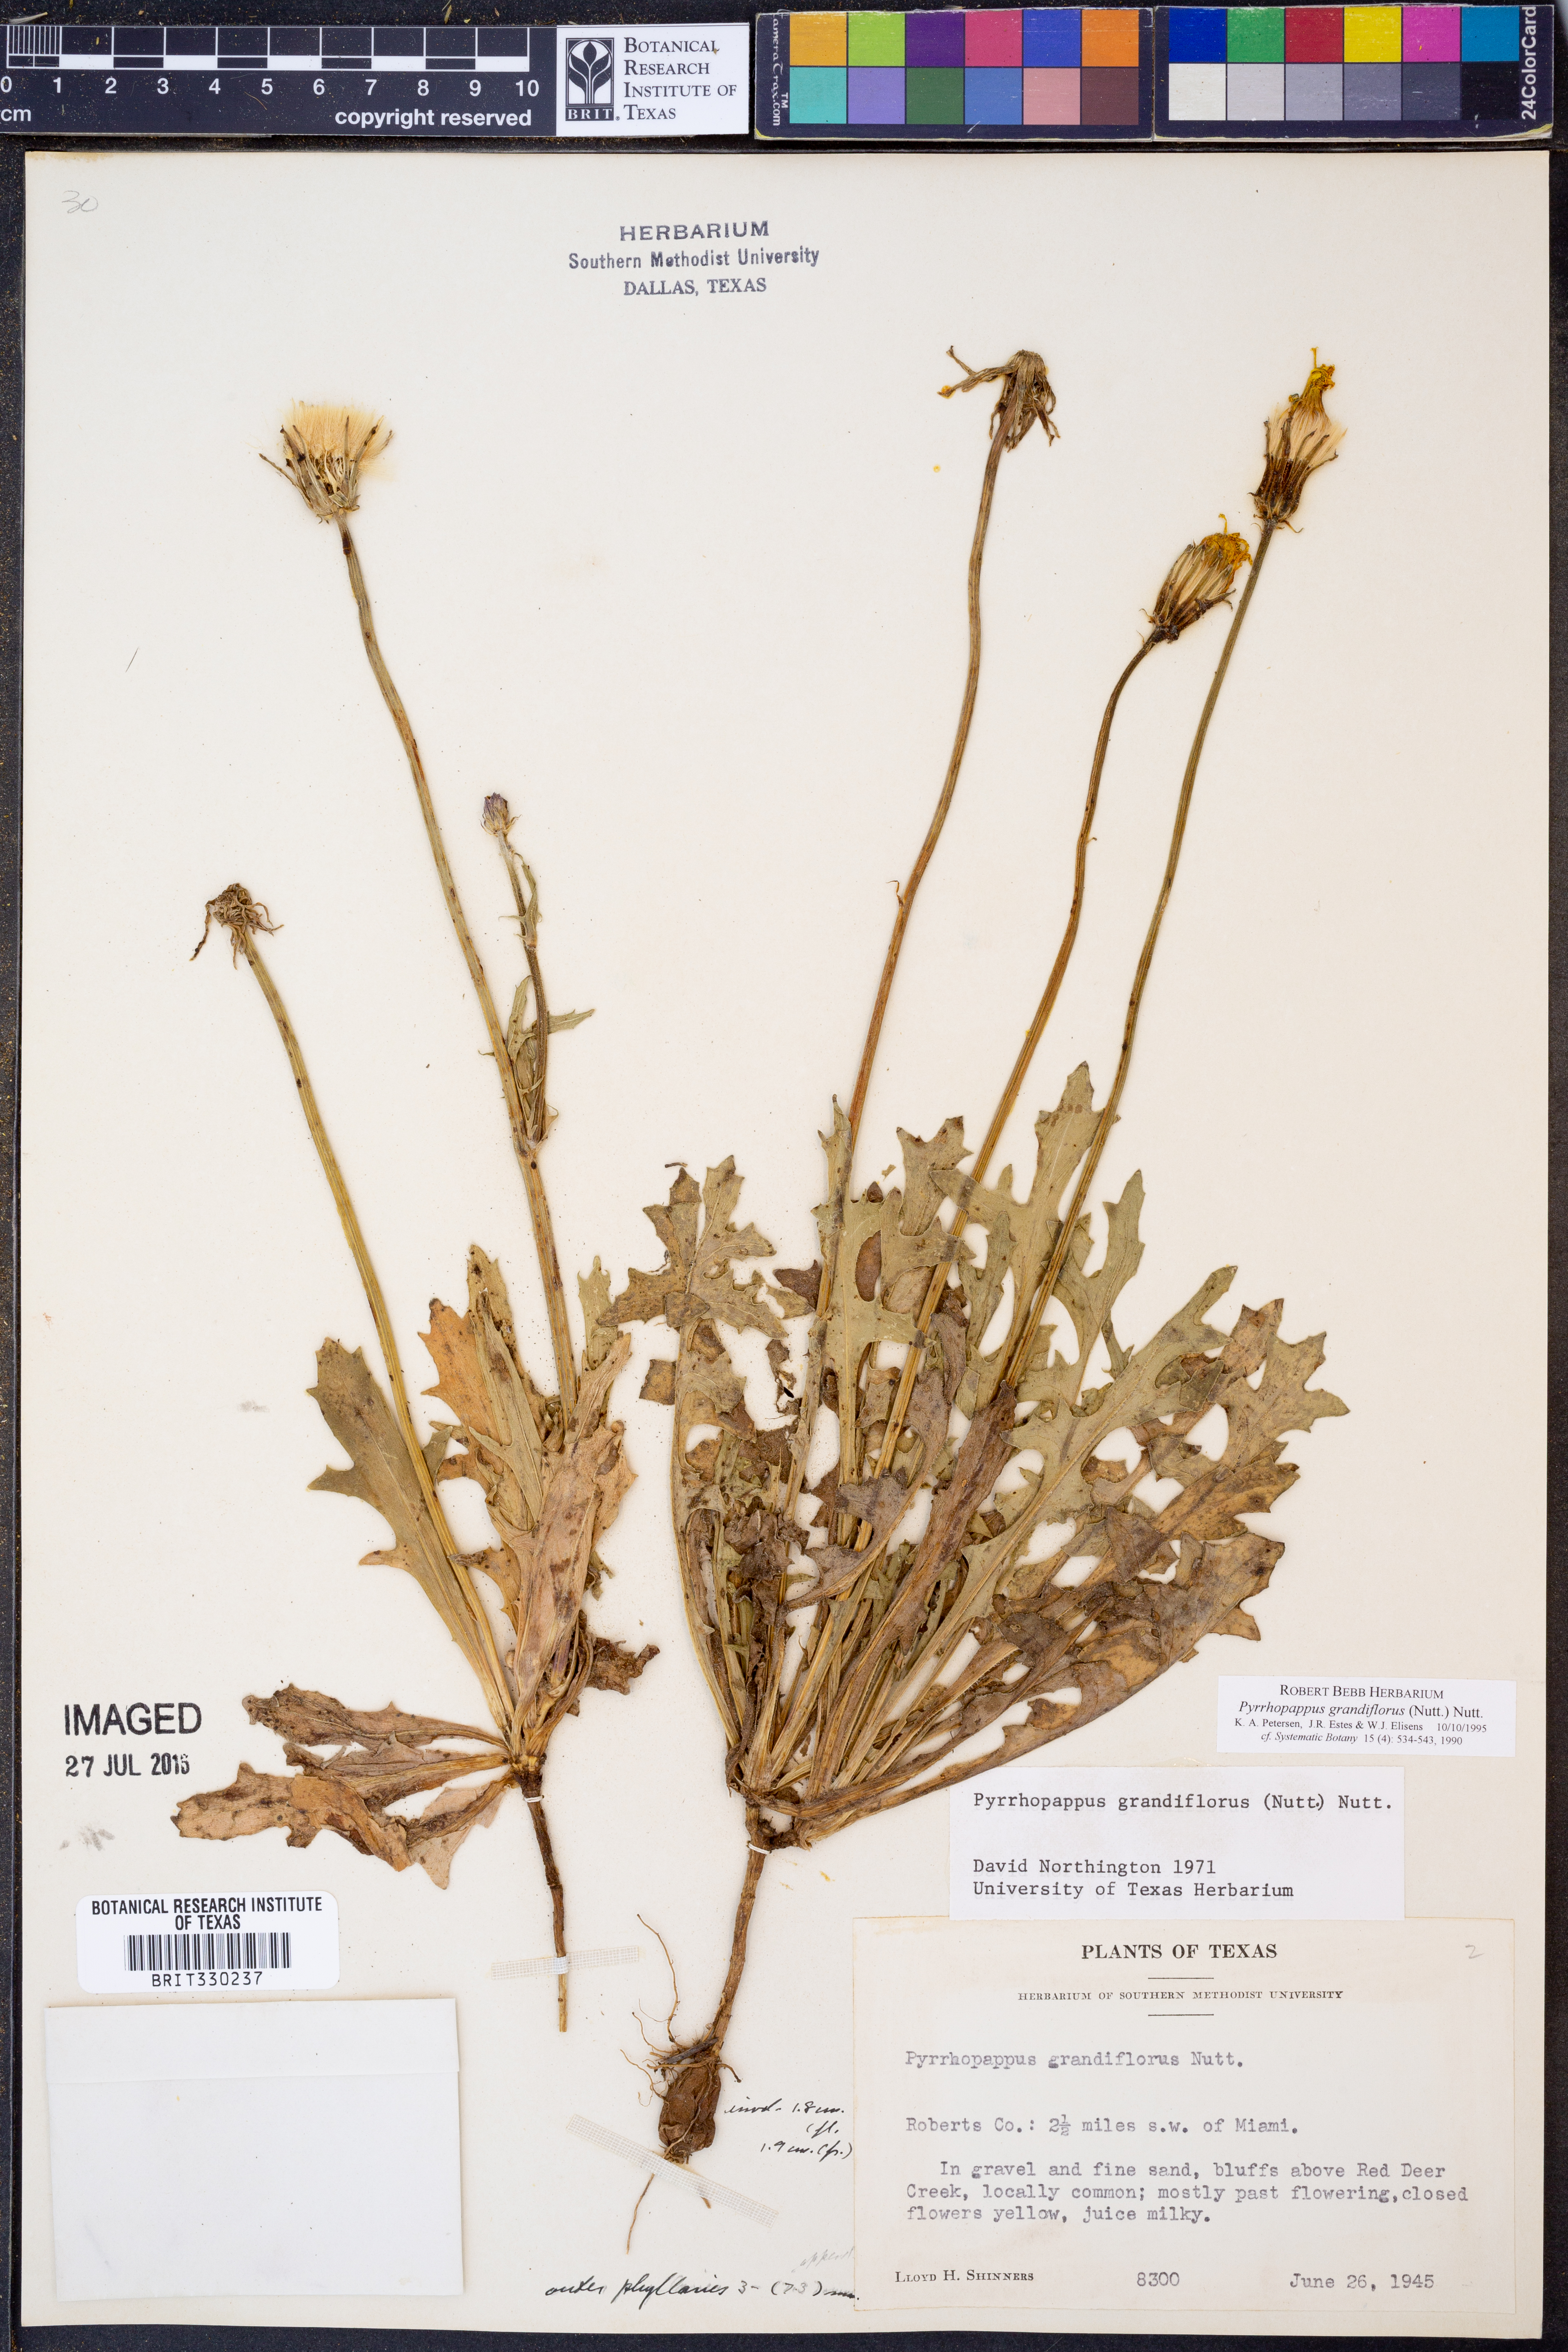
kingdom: Plantae
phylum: Tracheophyta
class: Magnoliopsida
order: Asterales
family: Asteraceae
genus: Pyrrhopappus
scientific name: Pyrrhopappus grandiflorus
